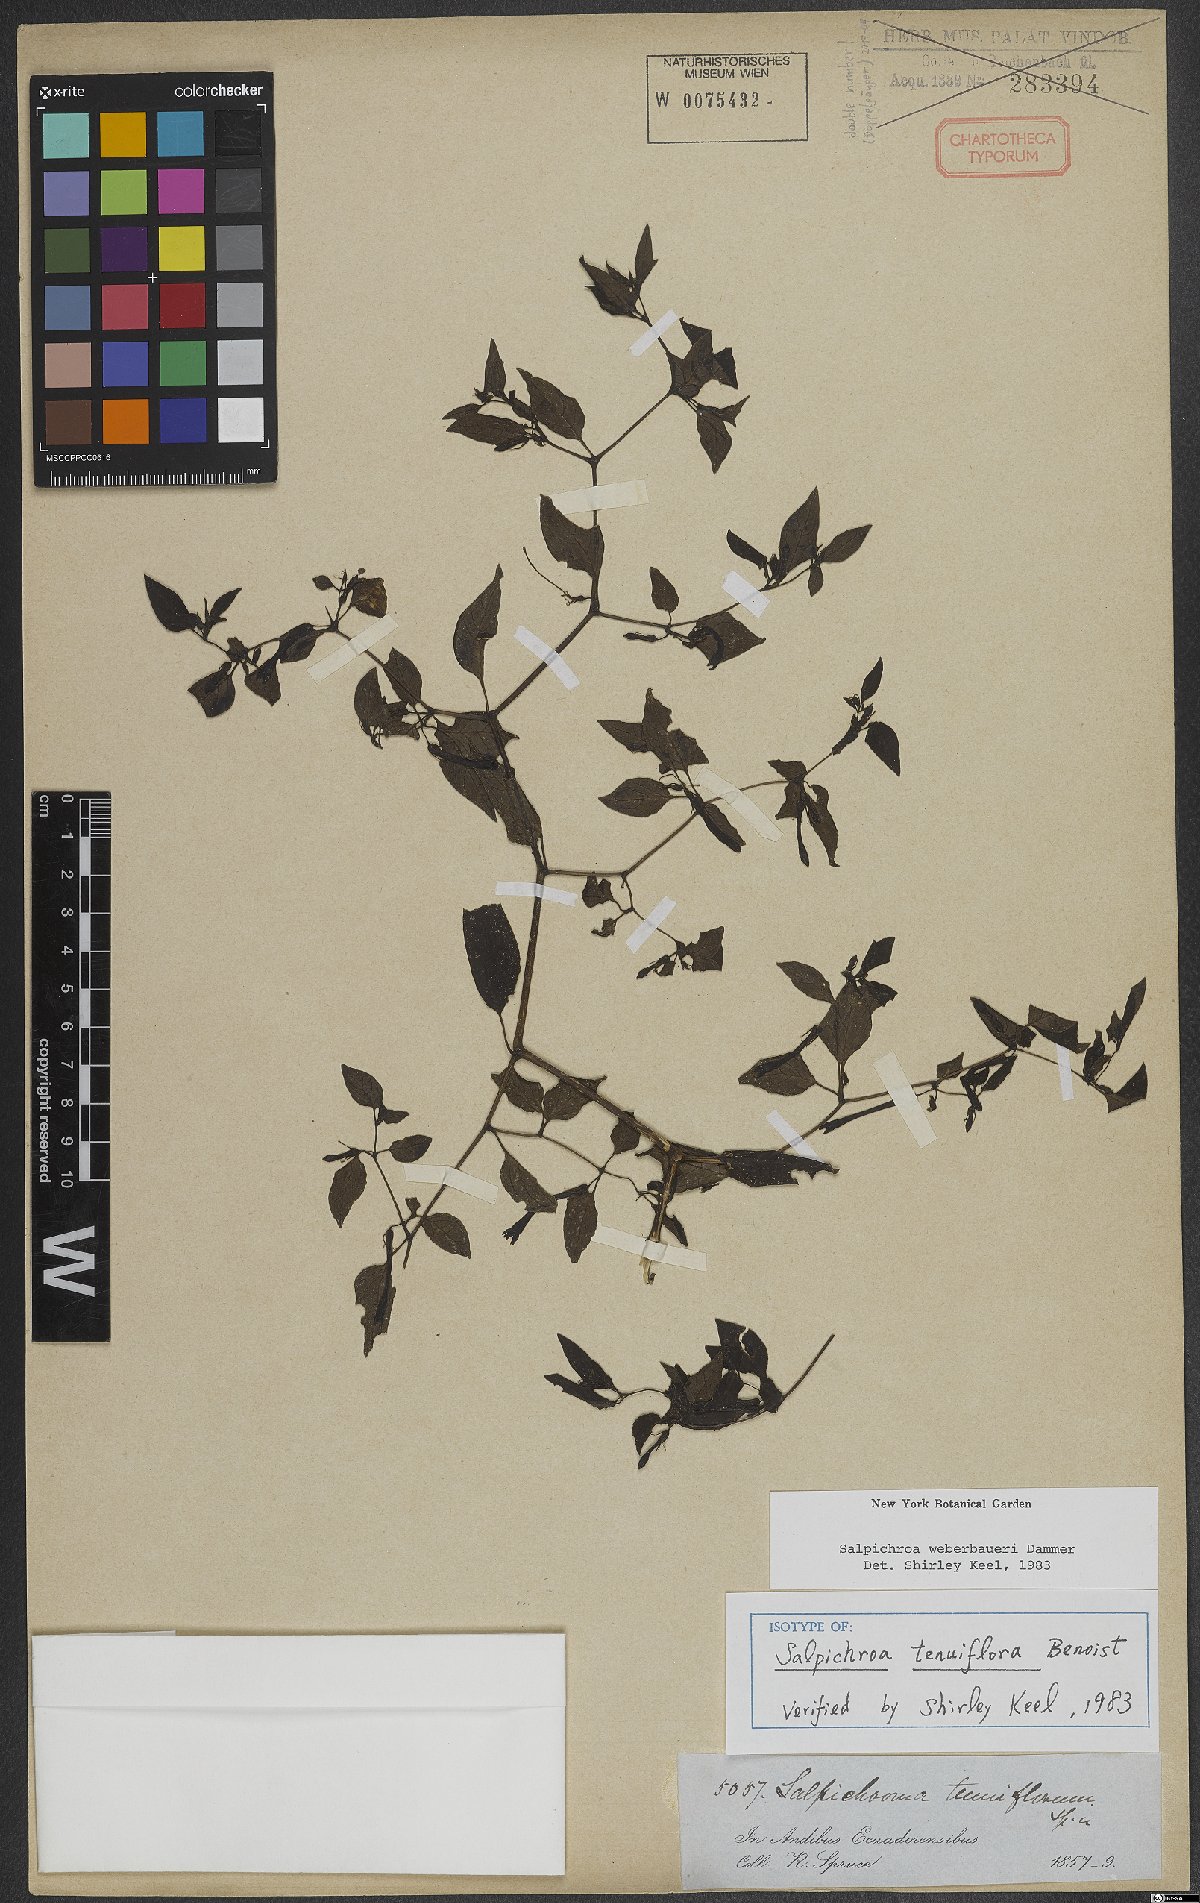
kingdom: Plantae
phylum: Tracheophyta
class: Magnoliopsida
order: Solanales
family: Solanaceae
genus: Salpichroa
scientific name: Salpichroa weberbaueri
